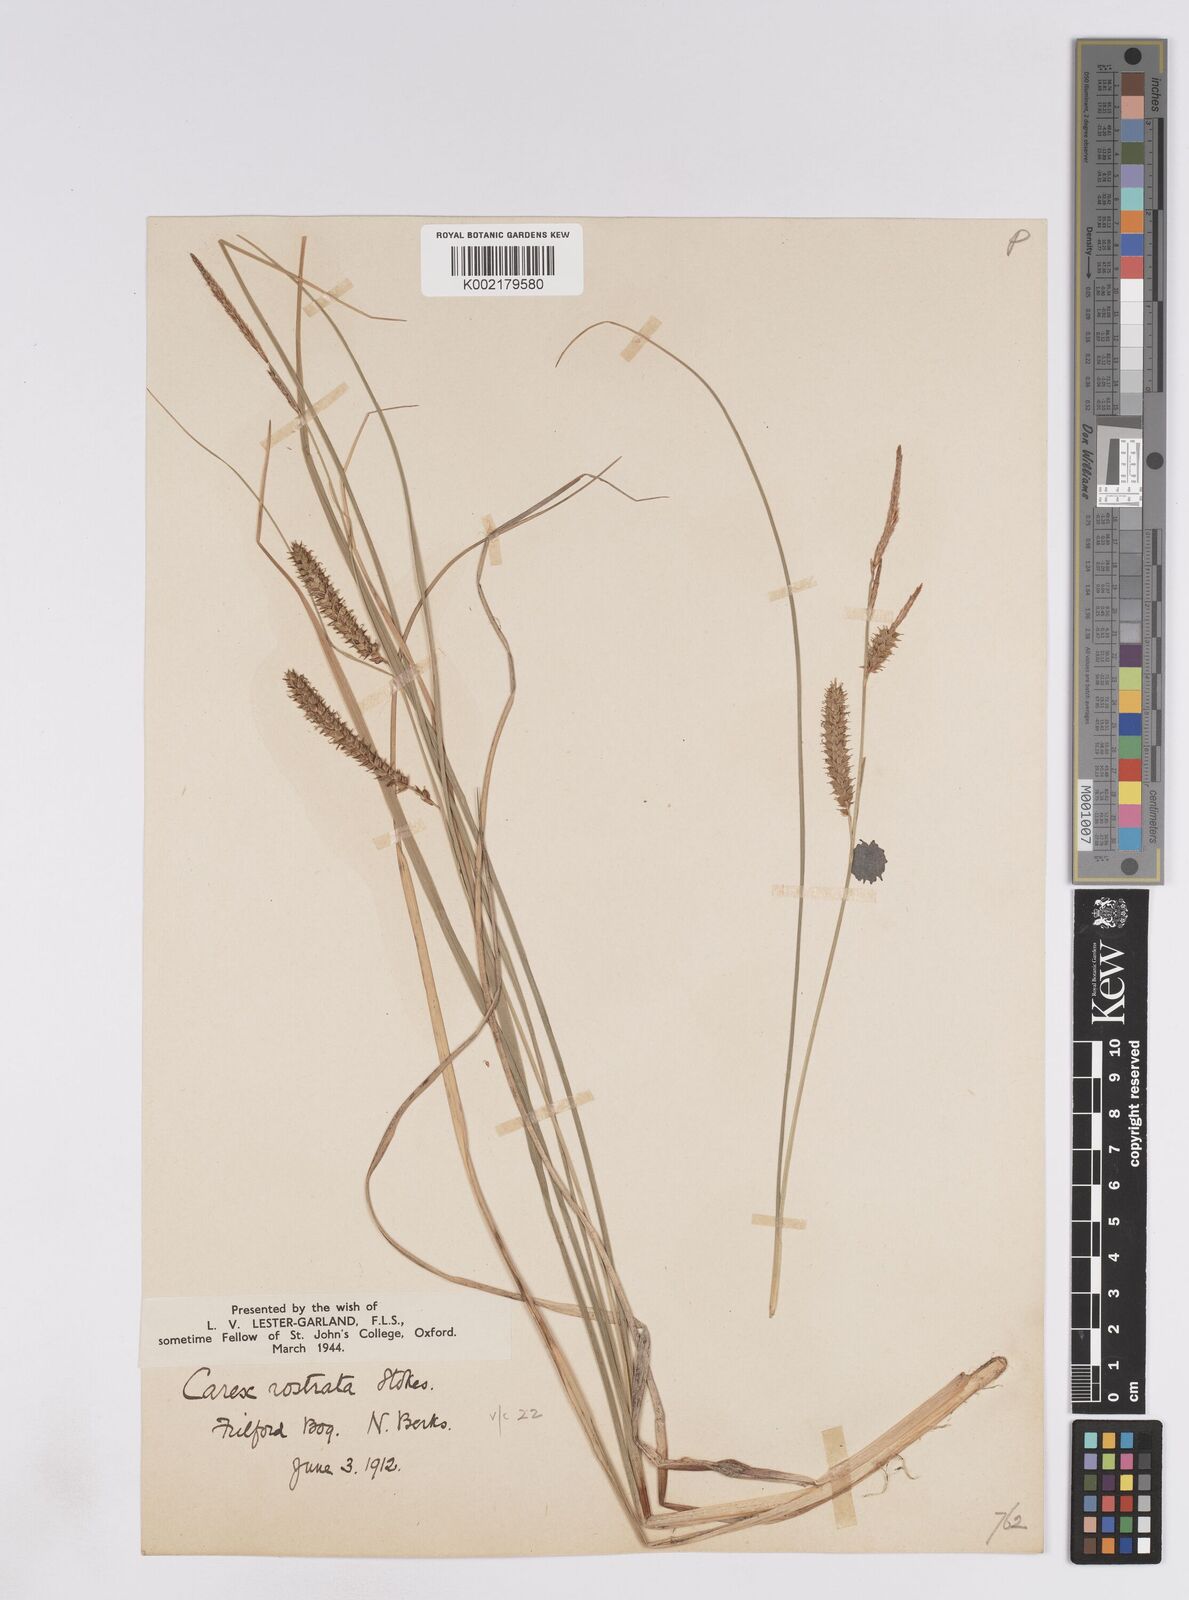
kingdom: Plantae
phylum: Tracheophyta
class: Liliopsida
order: Poales
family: Cyperaceae
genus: Carex
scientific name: Carex rostrata
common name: Bottle sedge
